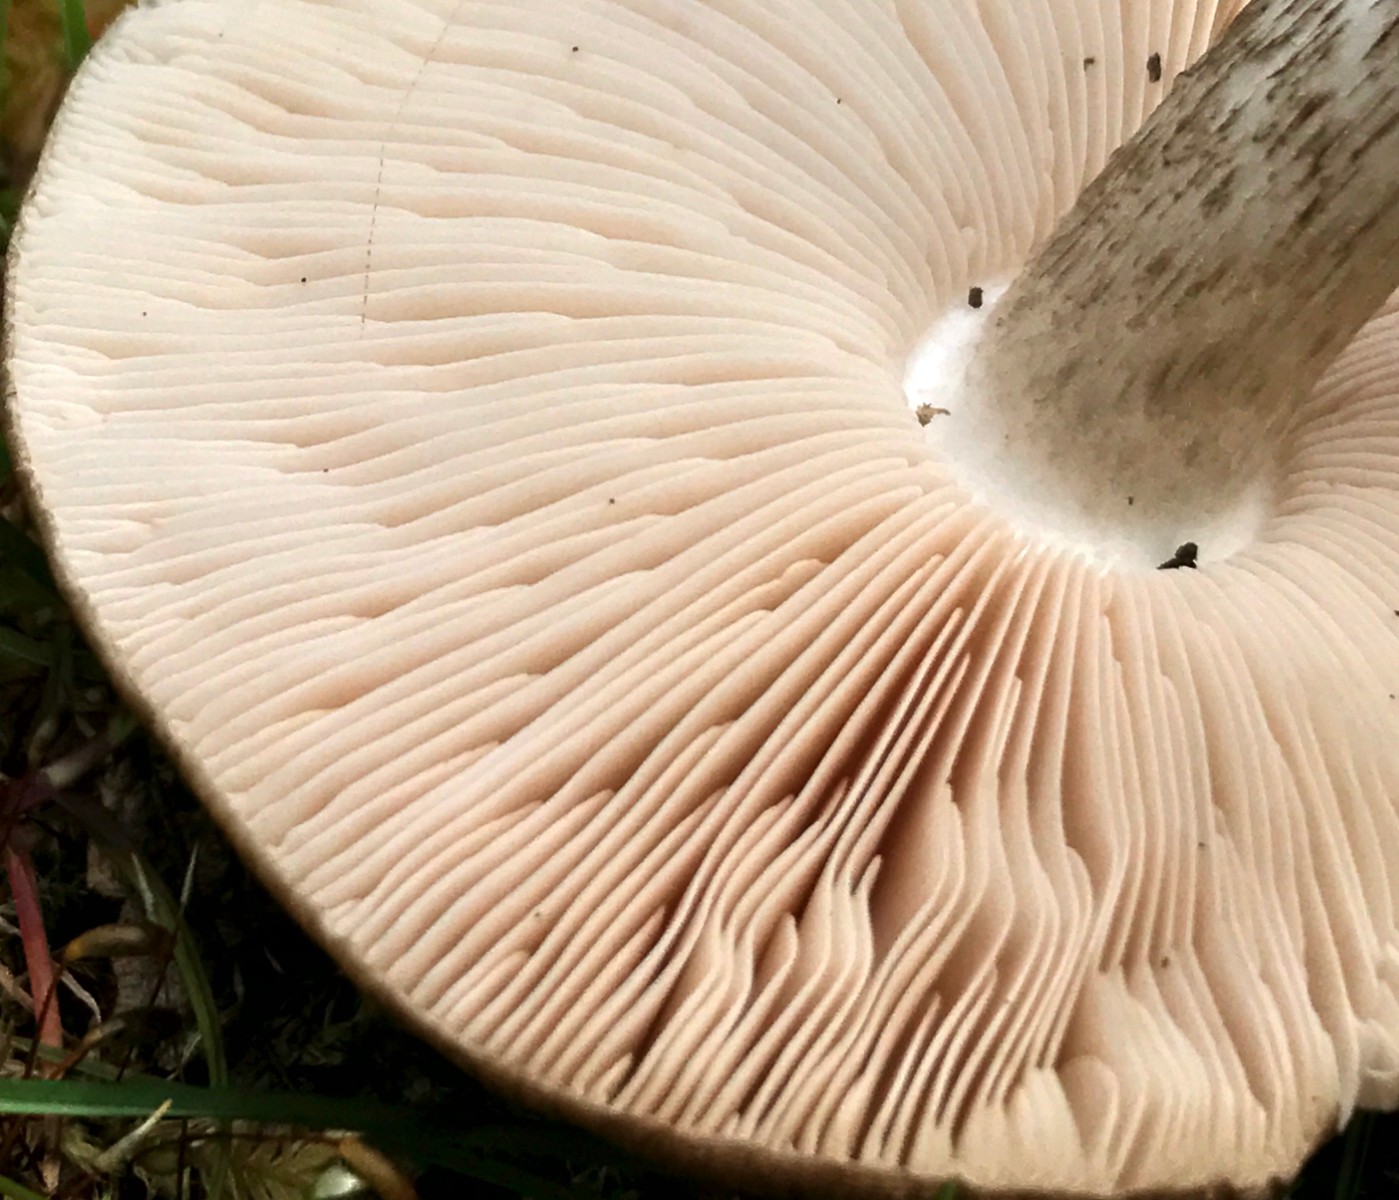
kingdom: Fungi
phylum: Basidiomycota
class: Agaricomycetes
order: Agaricales
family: Pluteaceae
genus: Pluteus
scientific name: Pluteus cervinus
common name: sodfarvet skærmhat
